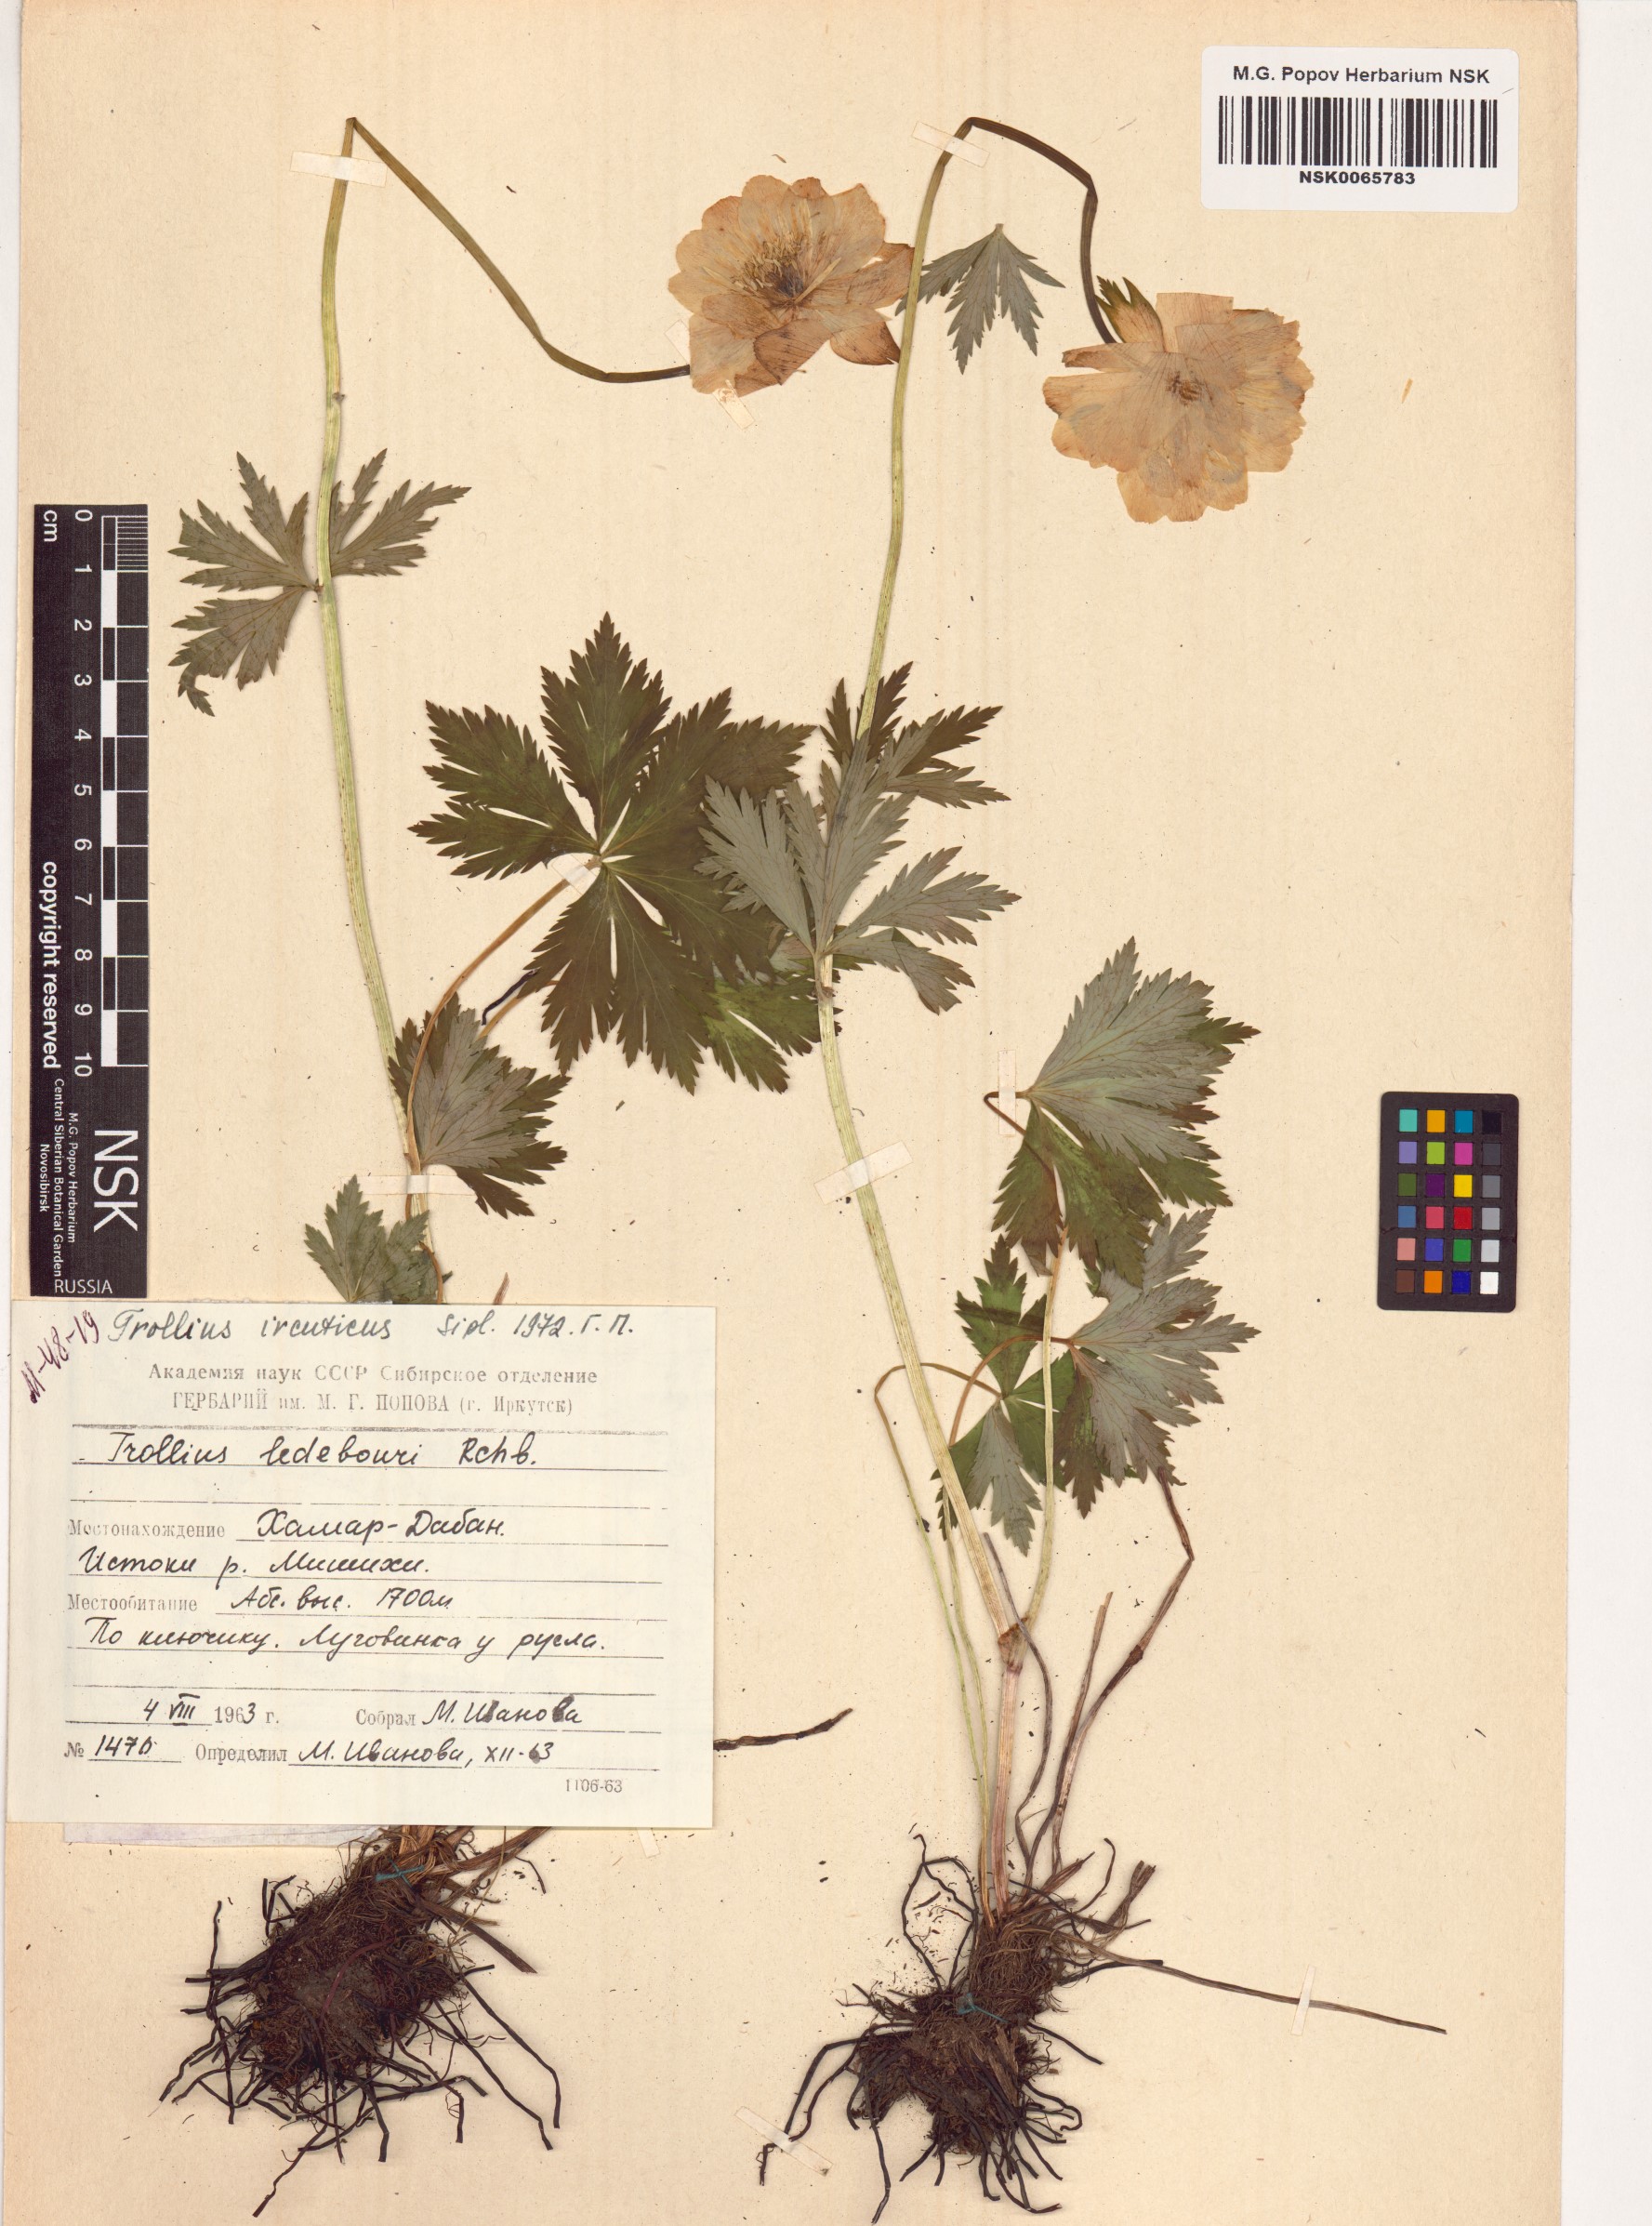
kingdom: Plantae
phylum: Tracheophyta
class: Magnoliopsida
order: Ranunculales
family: Ranunculaceae
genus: Trollius
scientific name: Trollius kytmanovii
